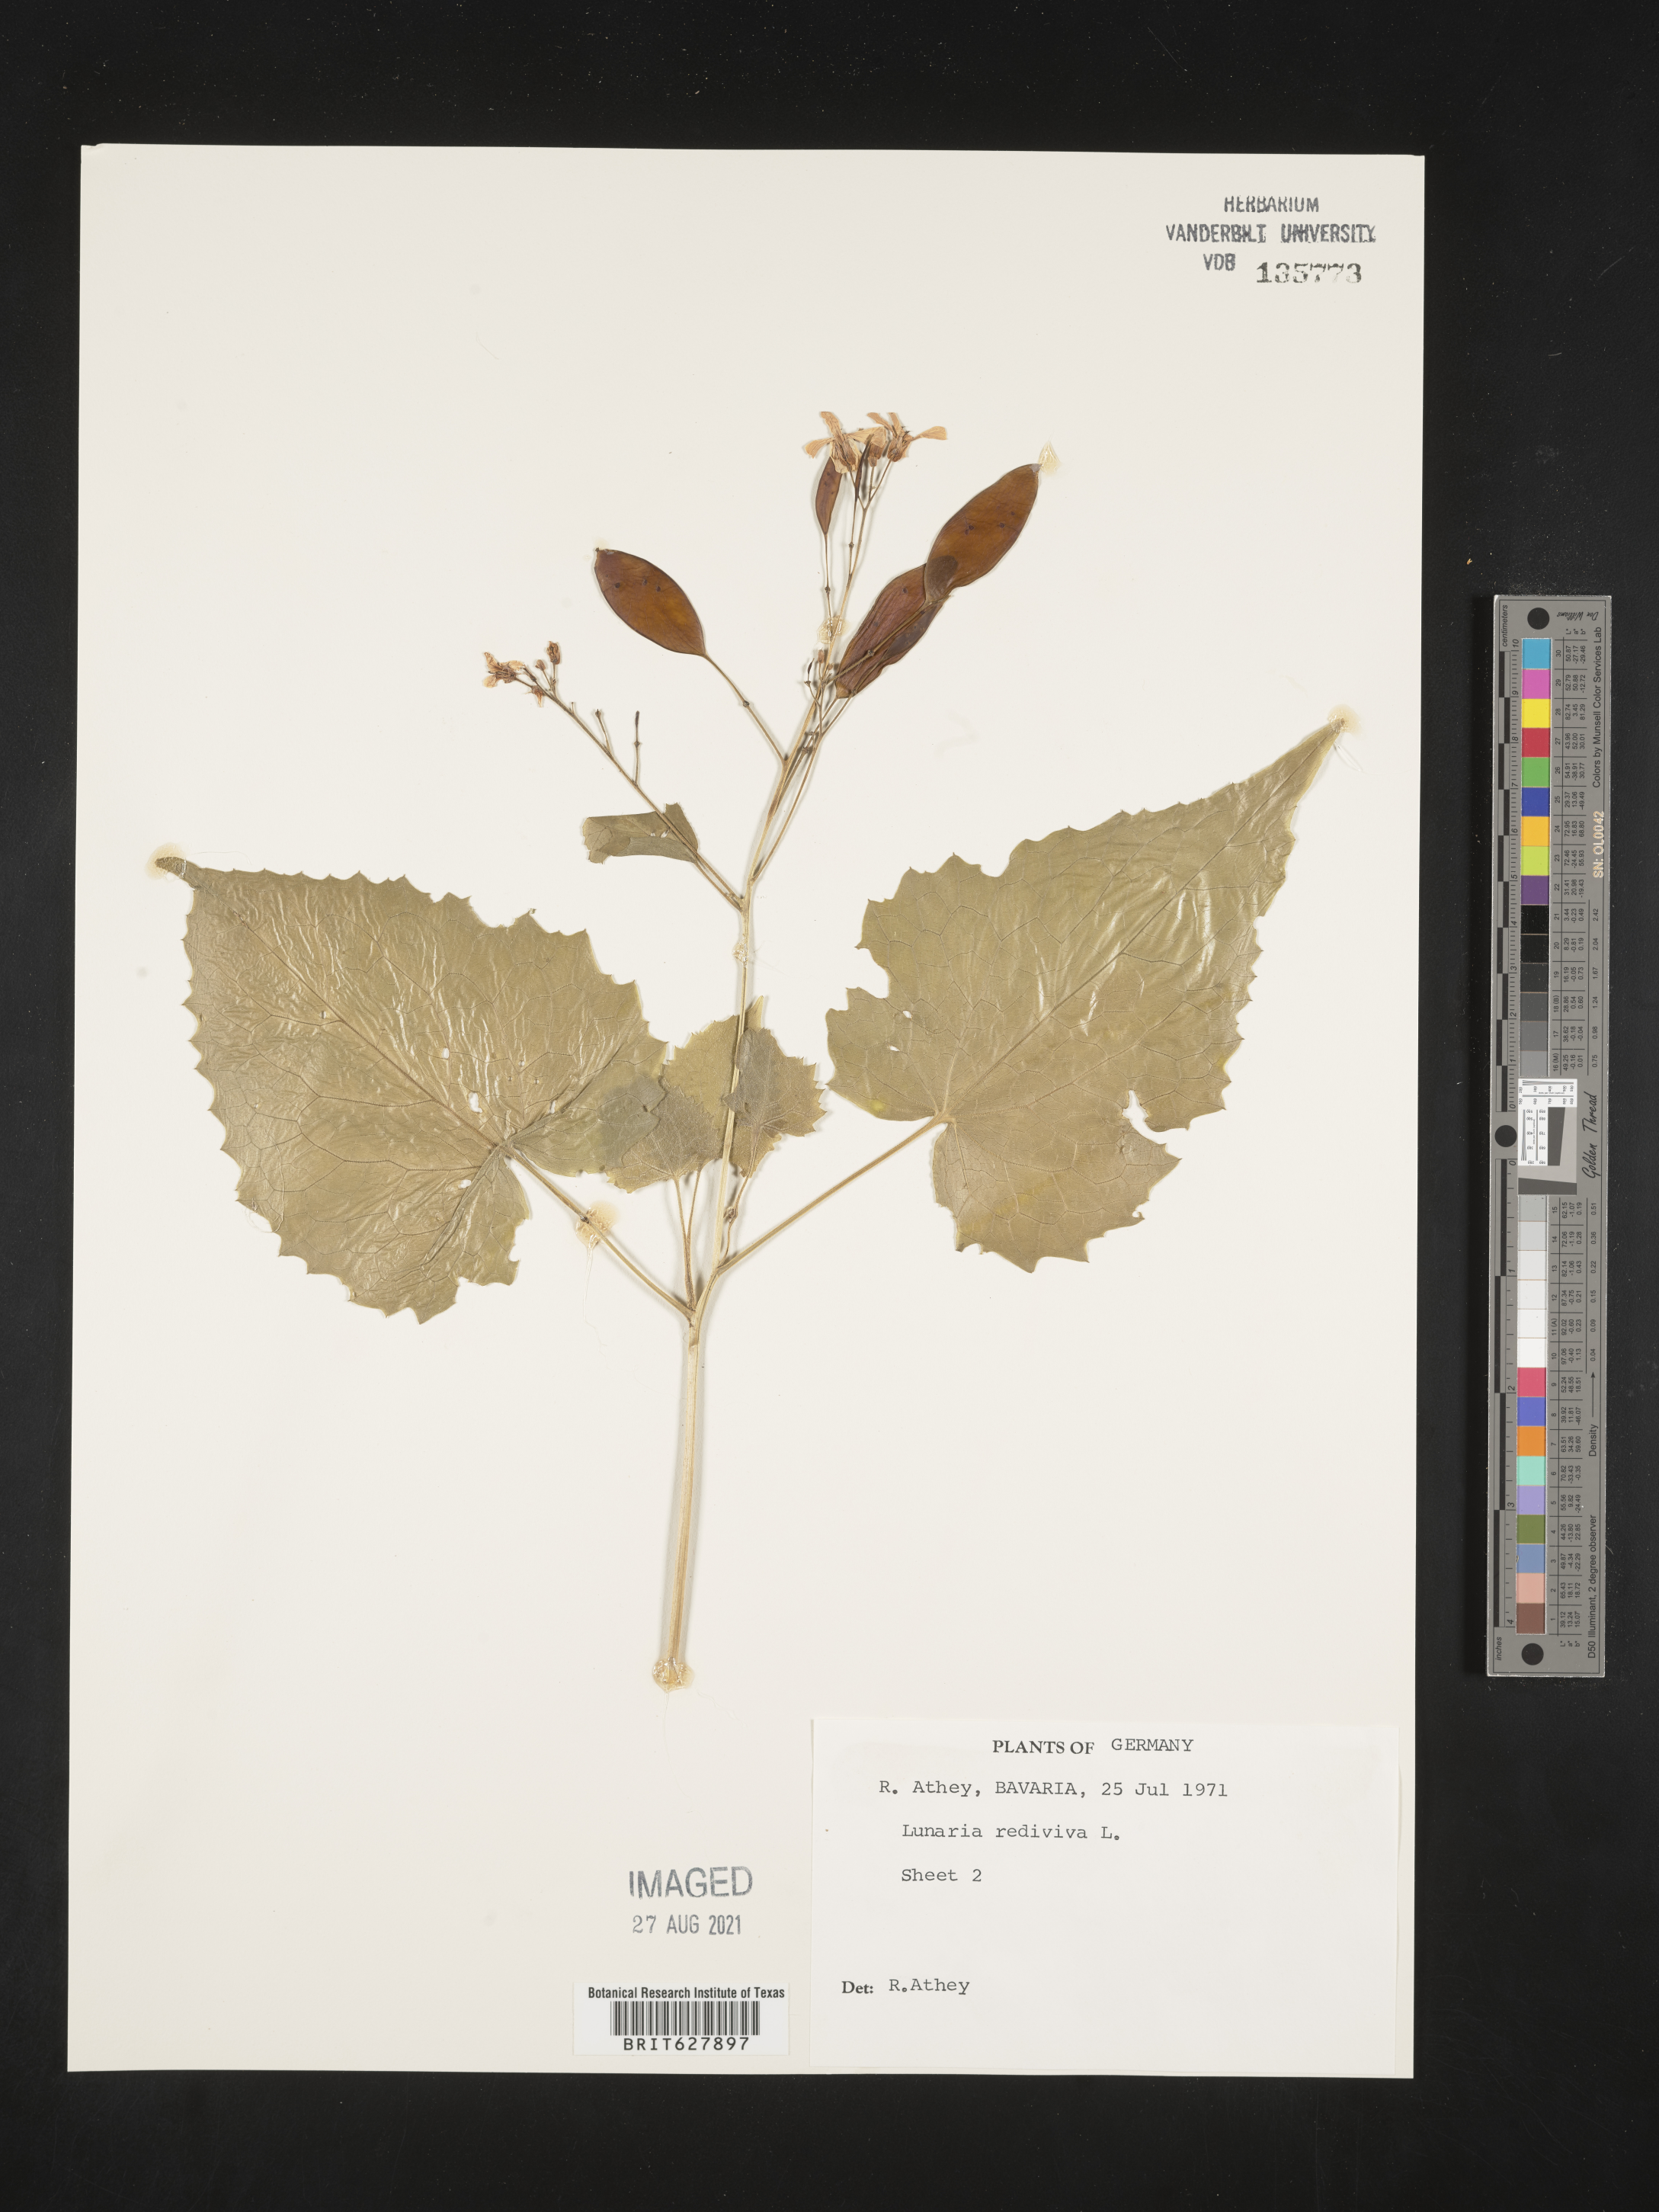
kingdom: Plantae
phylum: Tracheophyta
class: Magnoliopsida
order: Brassicales
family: Brassicaceae
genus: Lunaria
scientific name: Lunaria rediviva
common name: Perennial honesty
